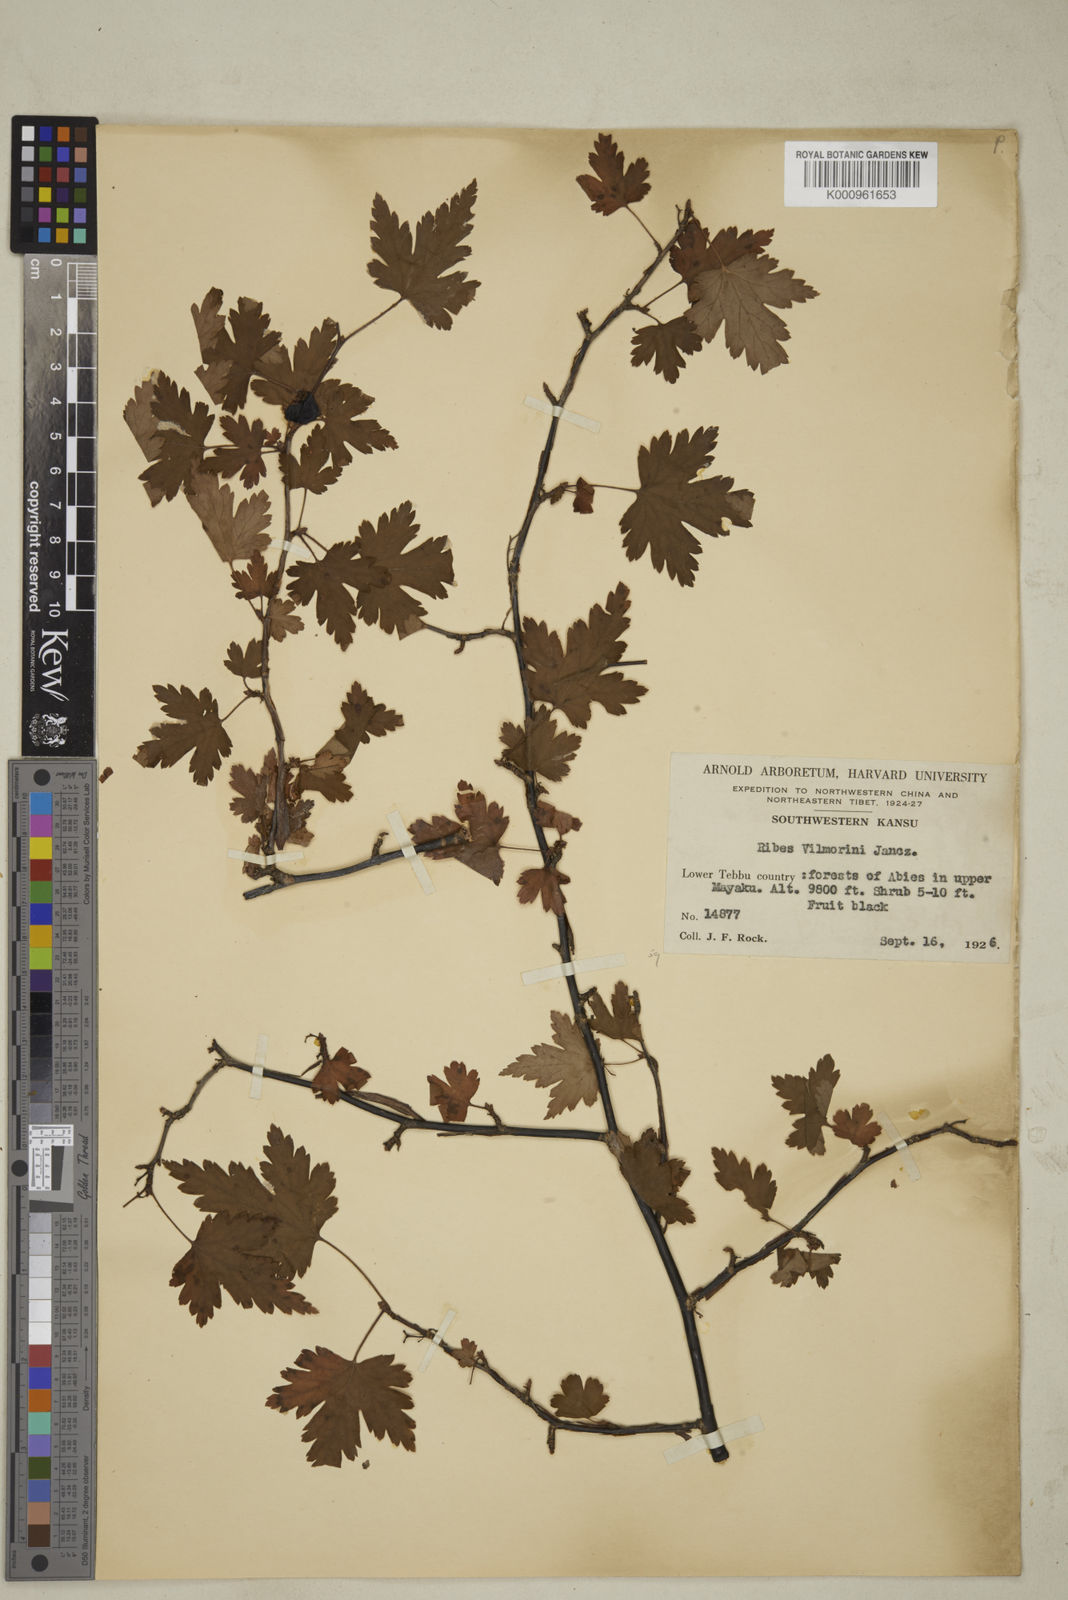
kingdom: Plantae
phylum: Tracheophyta
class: Magnoliopsida
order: Saxifragales
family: Grossulariaceae
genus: Ribes
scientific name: Ribes vilmorinii
